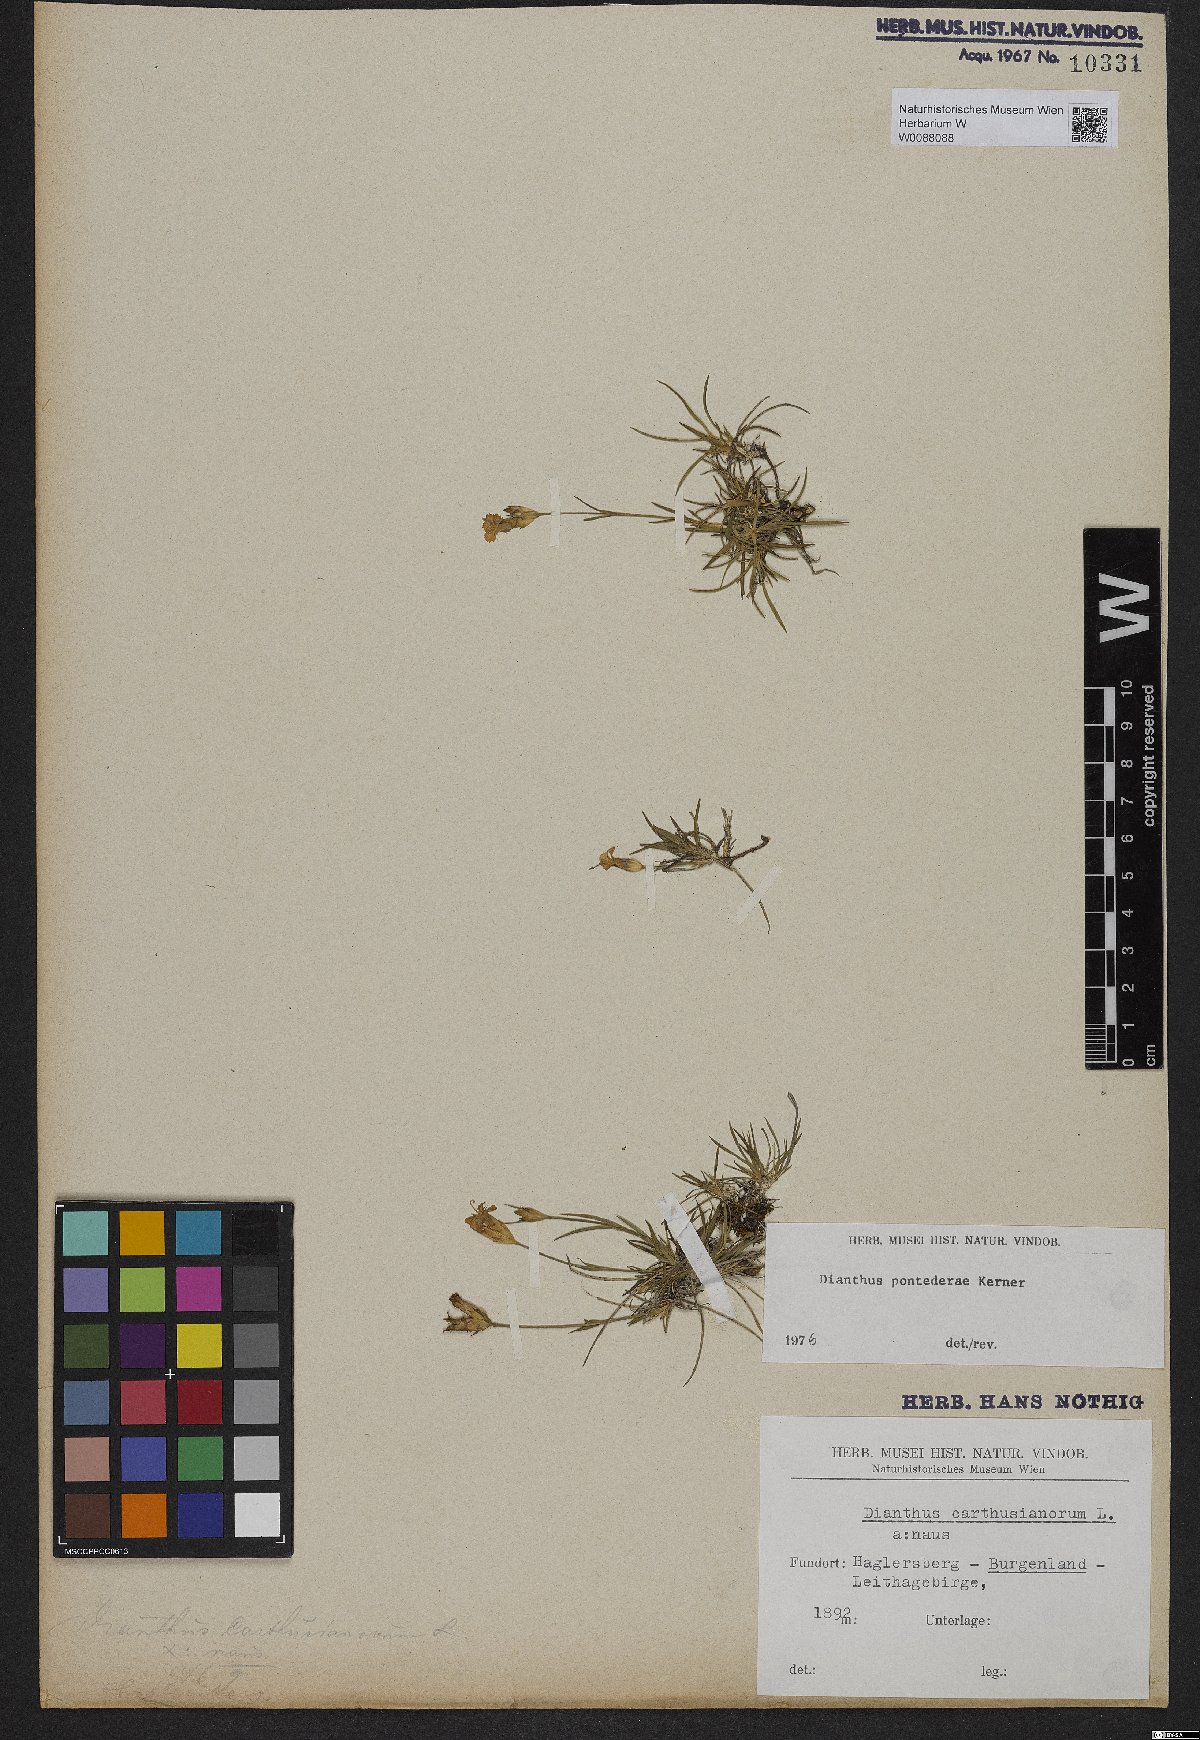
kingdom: Plantae
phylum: Tracheophyta
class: Magnoliopsida
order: Caryophyllales
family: Caryophyllaceae
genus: Dianthus
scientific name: Dianthus pontederae
